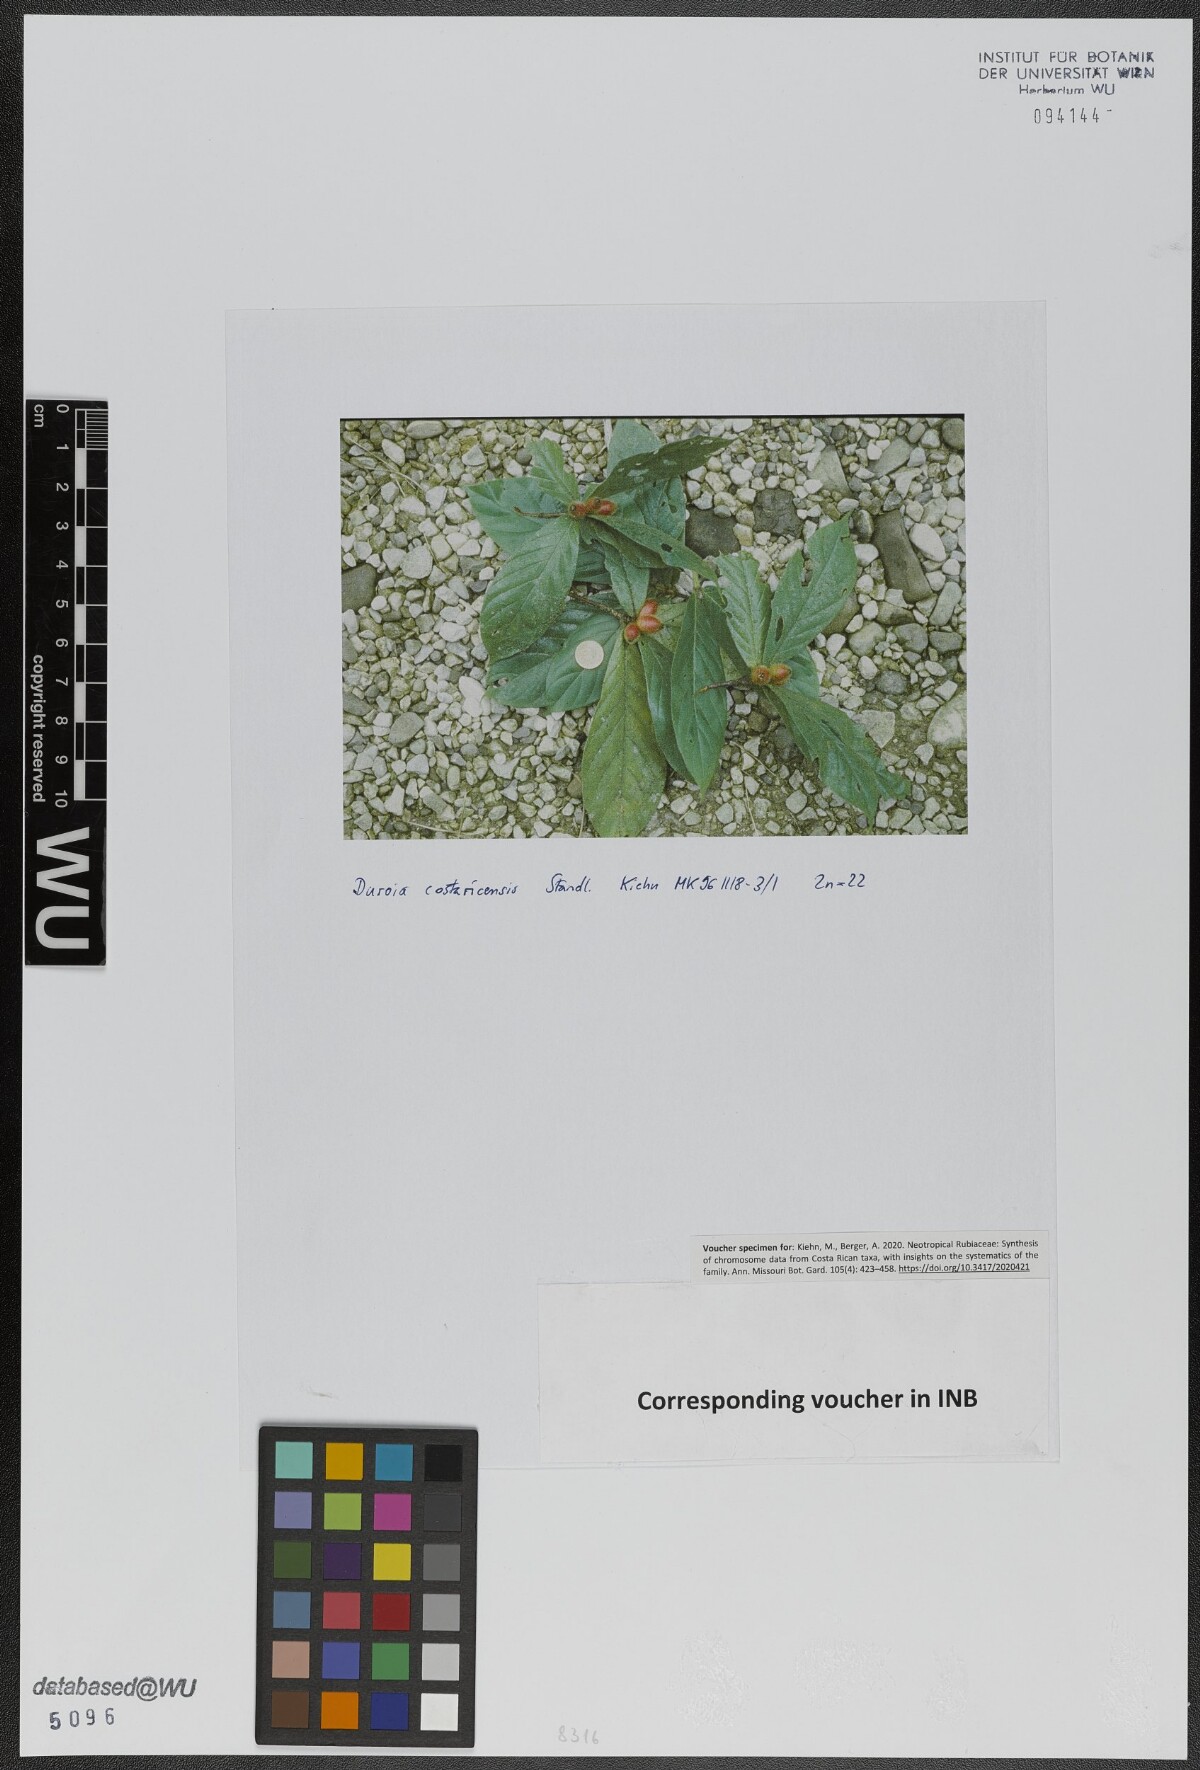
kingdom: Plantae
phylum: Tracheophyta
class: Magnoliopsida
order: Gentianales
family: Rubiaceae
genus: Duroia
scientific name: Duroia costaricensis
